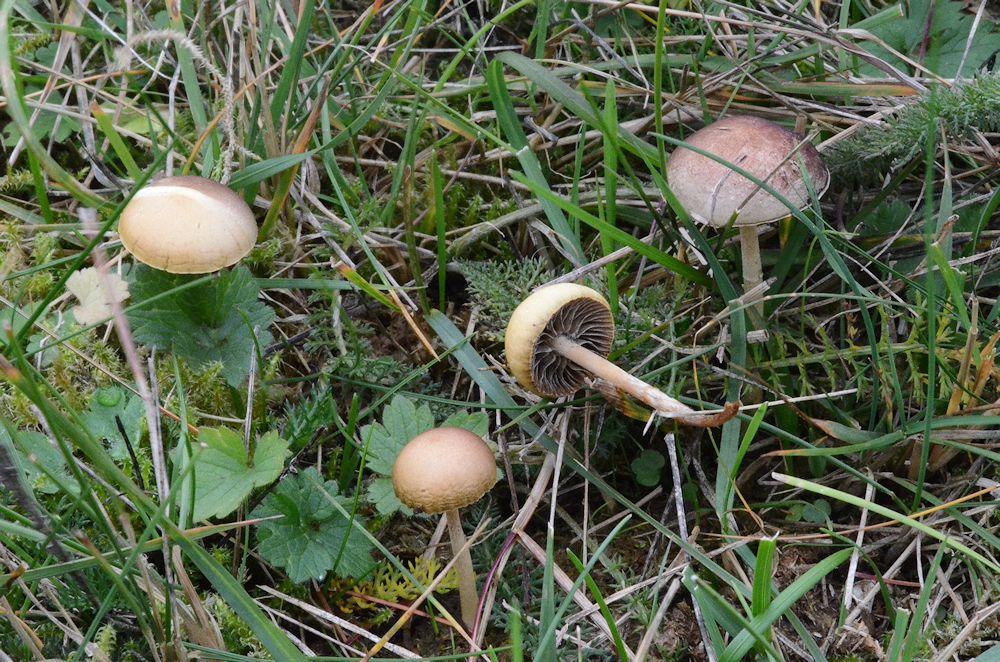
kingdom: Fungi
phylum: Basidiomycota
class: Agaricomycetes
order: Agaricales
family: Strophariaceae
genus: Protostropharia
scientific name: Protostropharia semiglobata
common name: halvkugleformet bredblad
